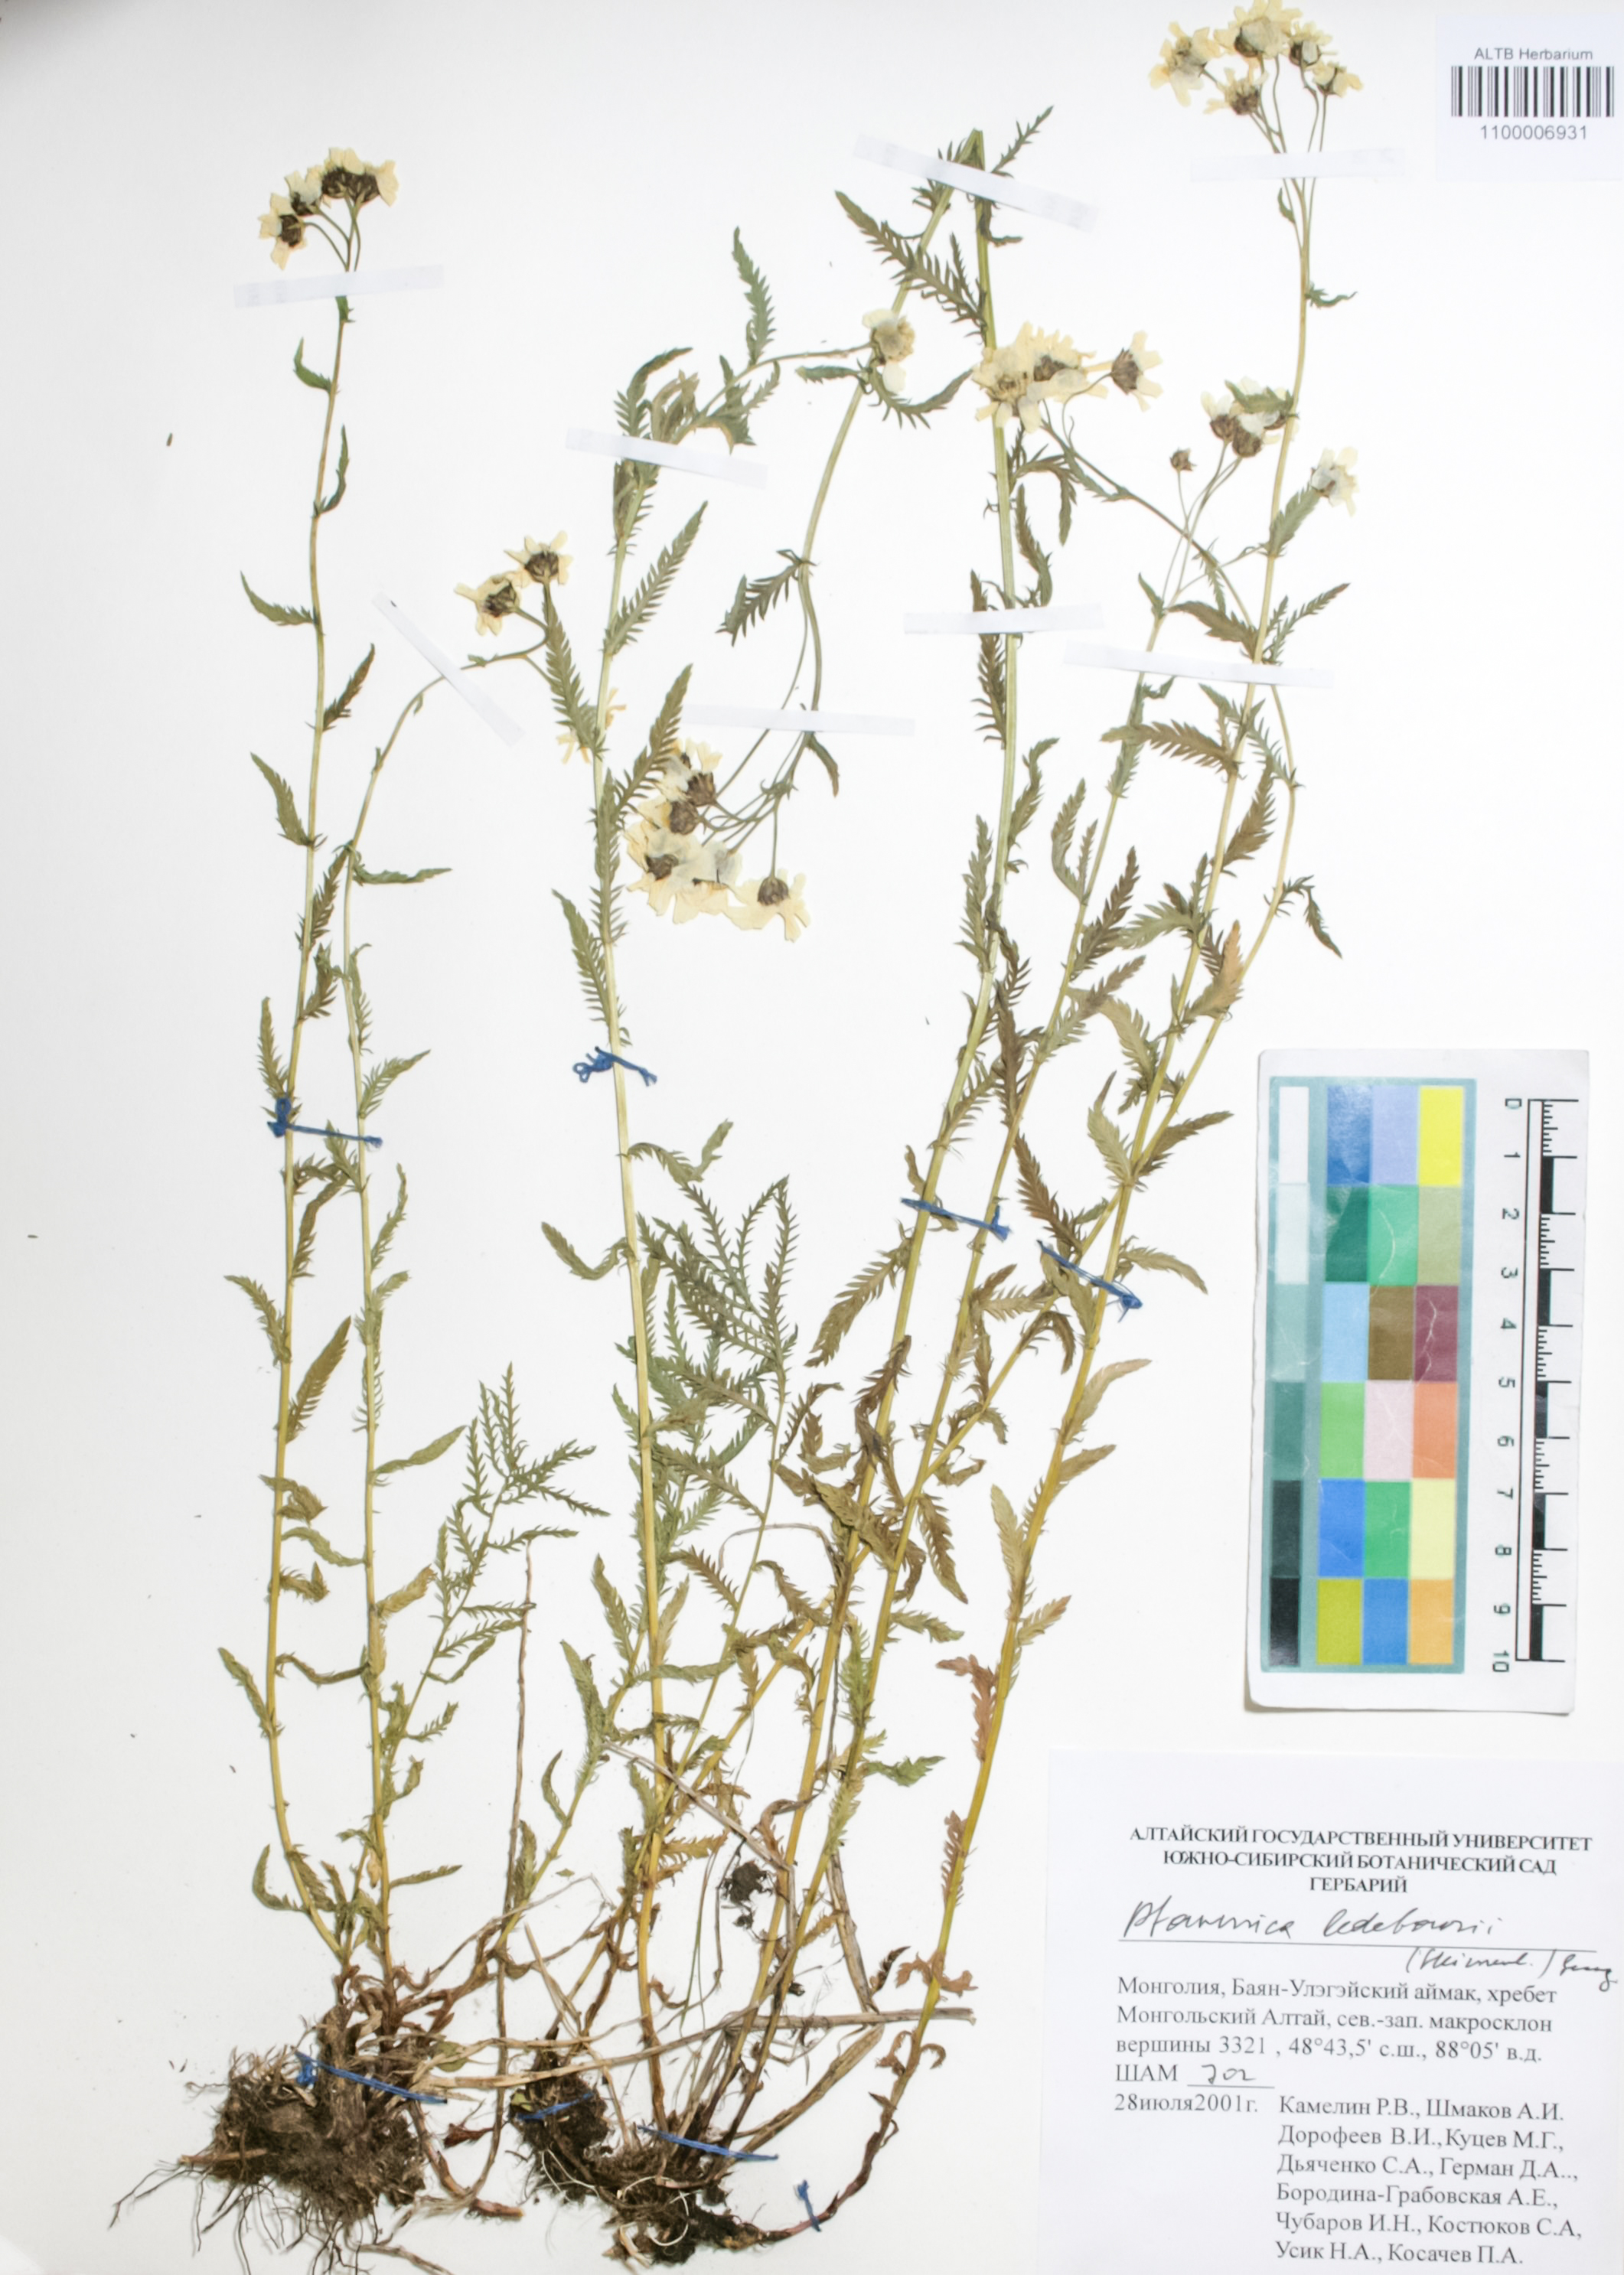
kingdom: Plantae
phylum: Tracheophyta
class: Magnoliopsida
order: Asterales
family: Asteraceae
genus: Achillea
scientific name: Achillea ledebourii
